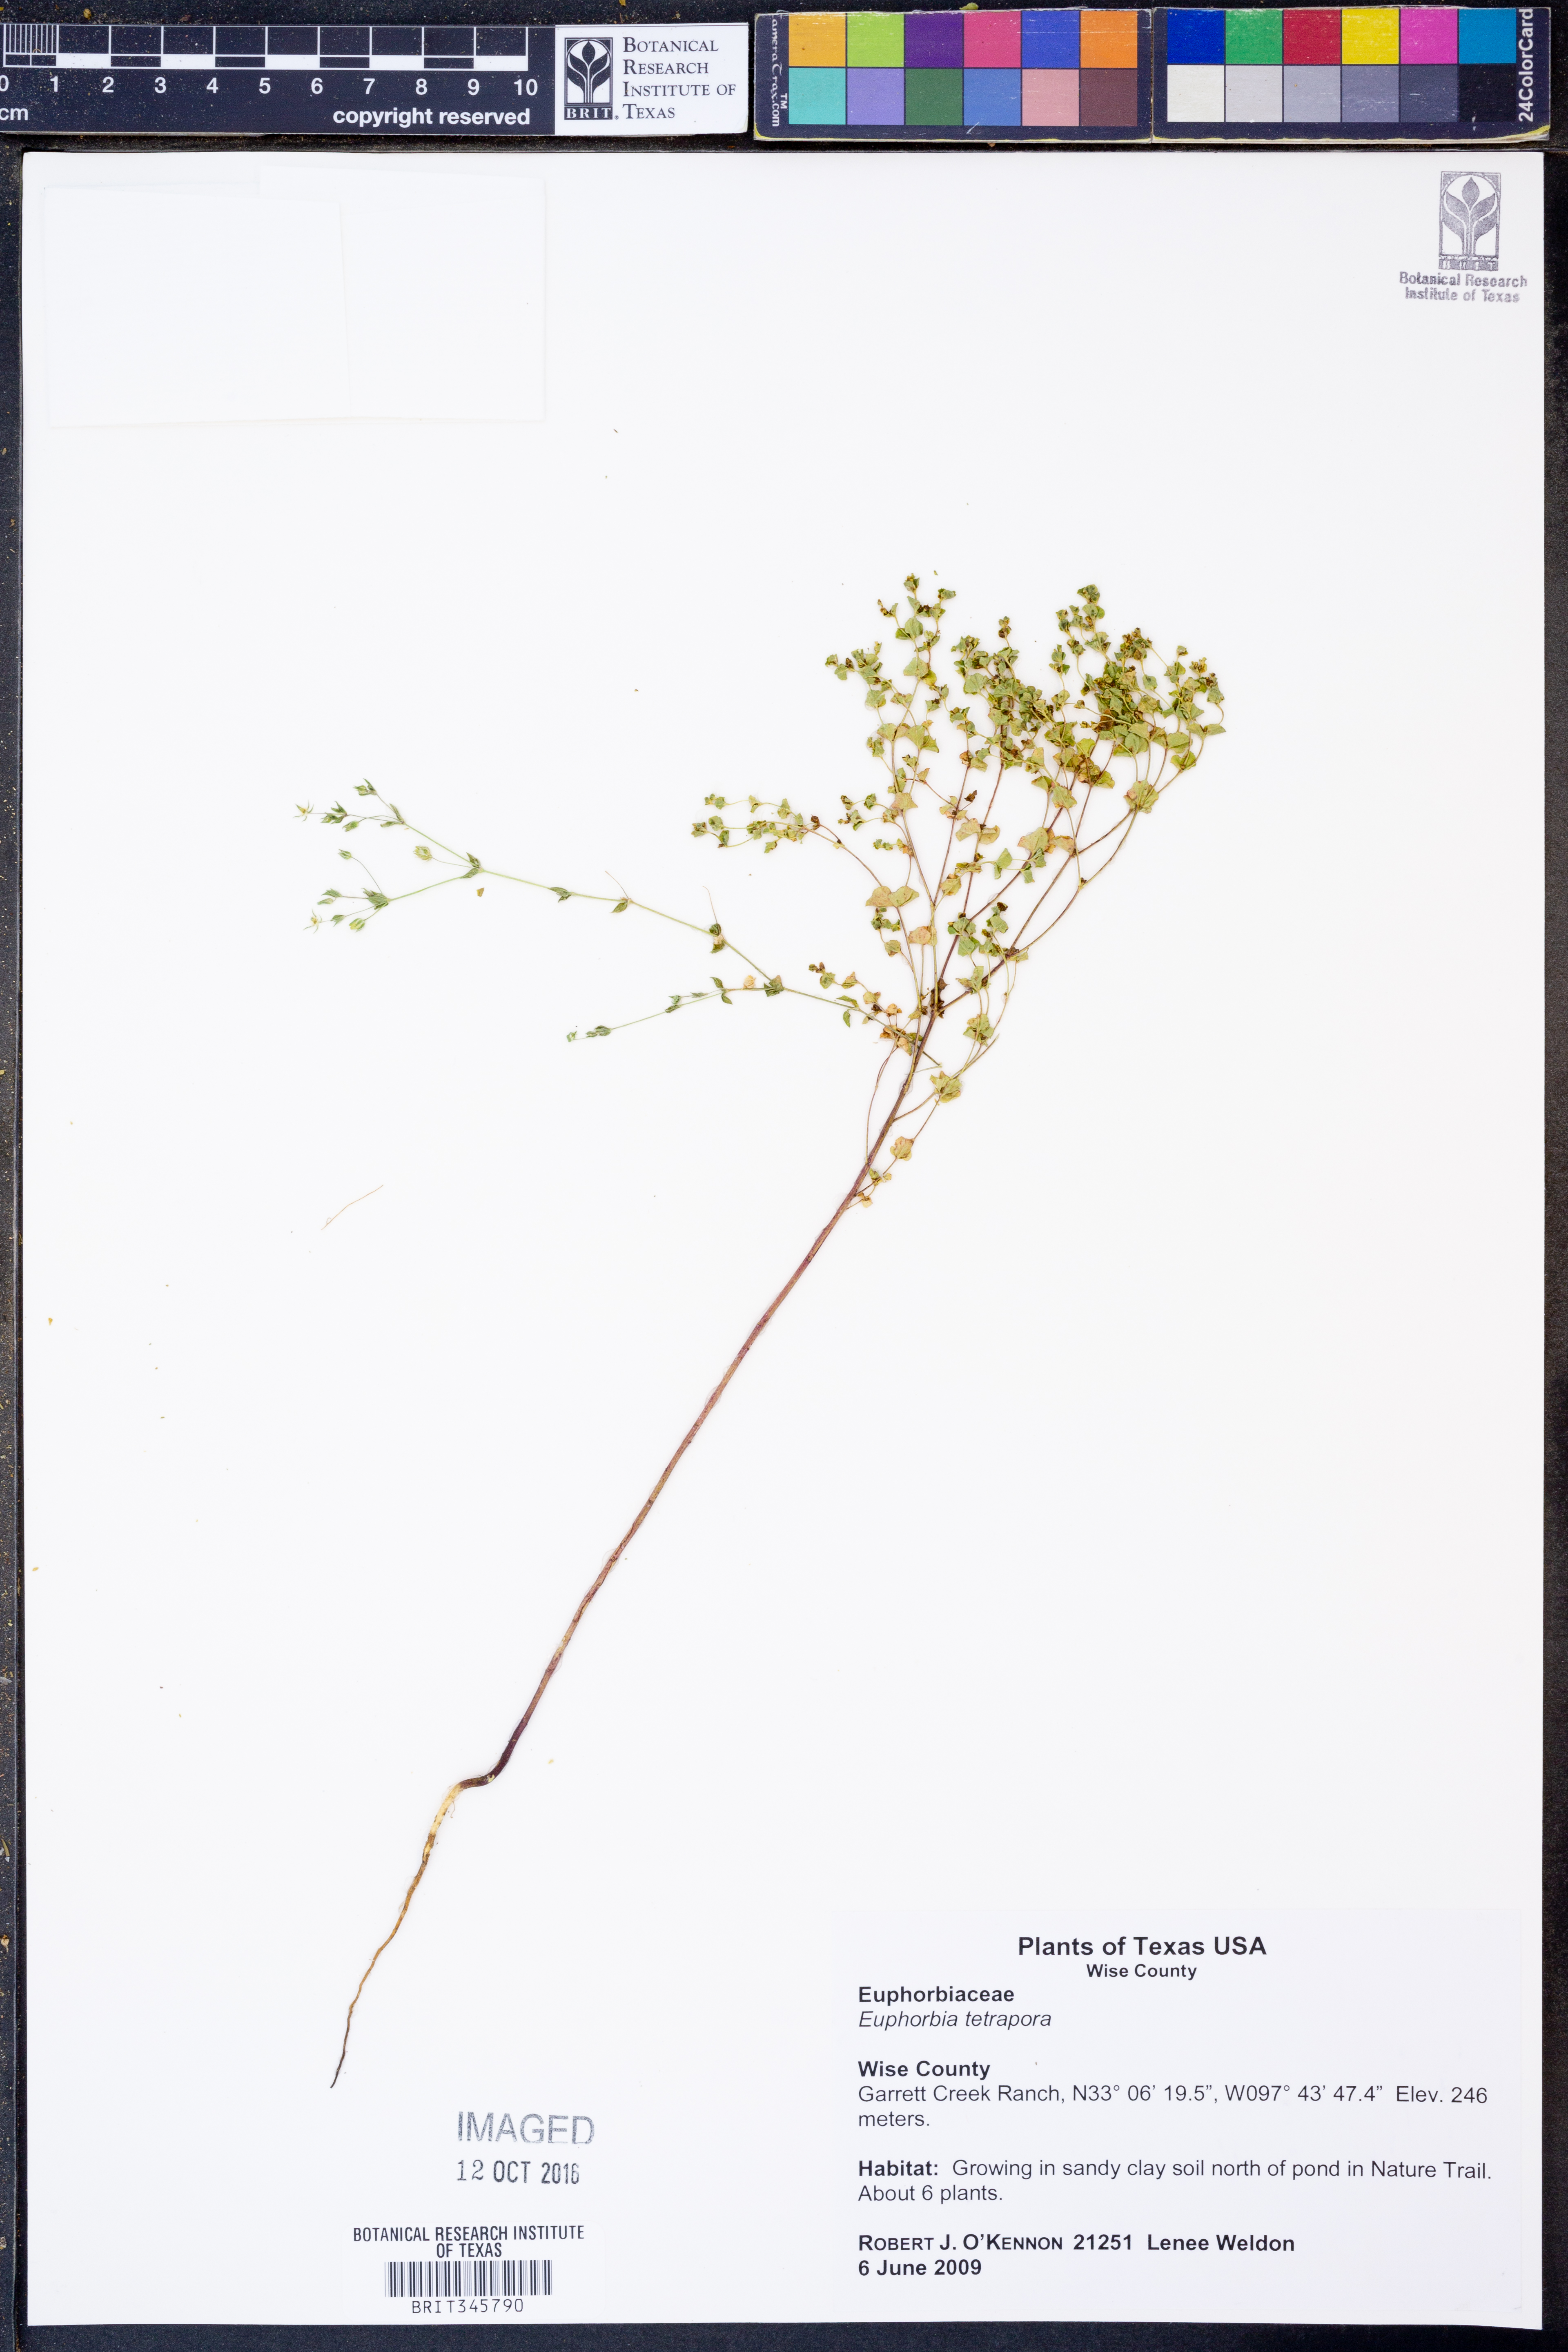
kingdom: Plantae
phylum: Tracheophyta
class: Magnoliopsida
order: Malpighiales
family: Euphorbiaceae
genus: Euphorbia
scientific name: Euphorbia spathulata
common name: Blunt spurge
